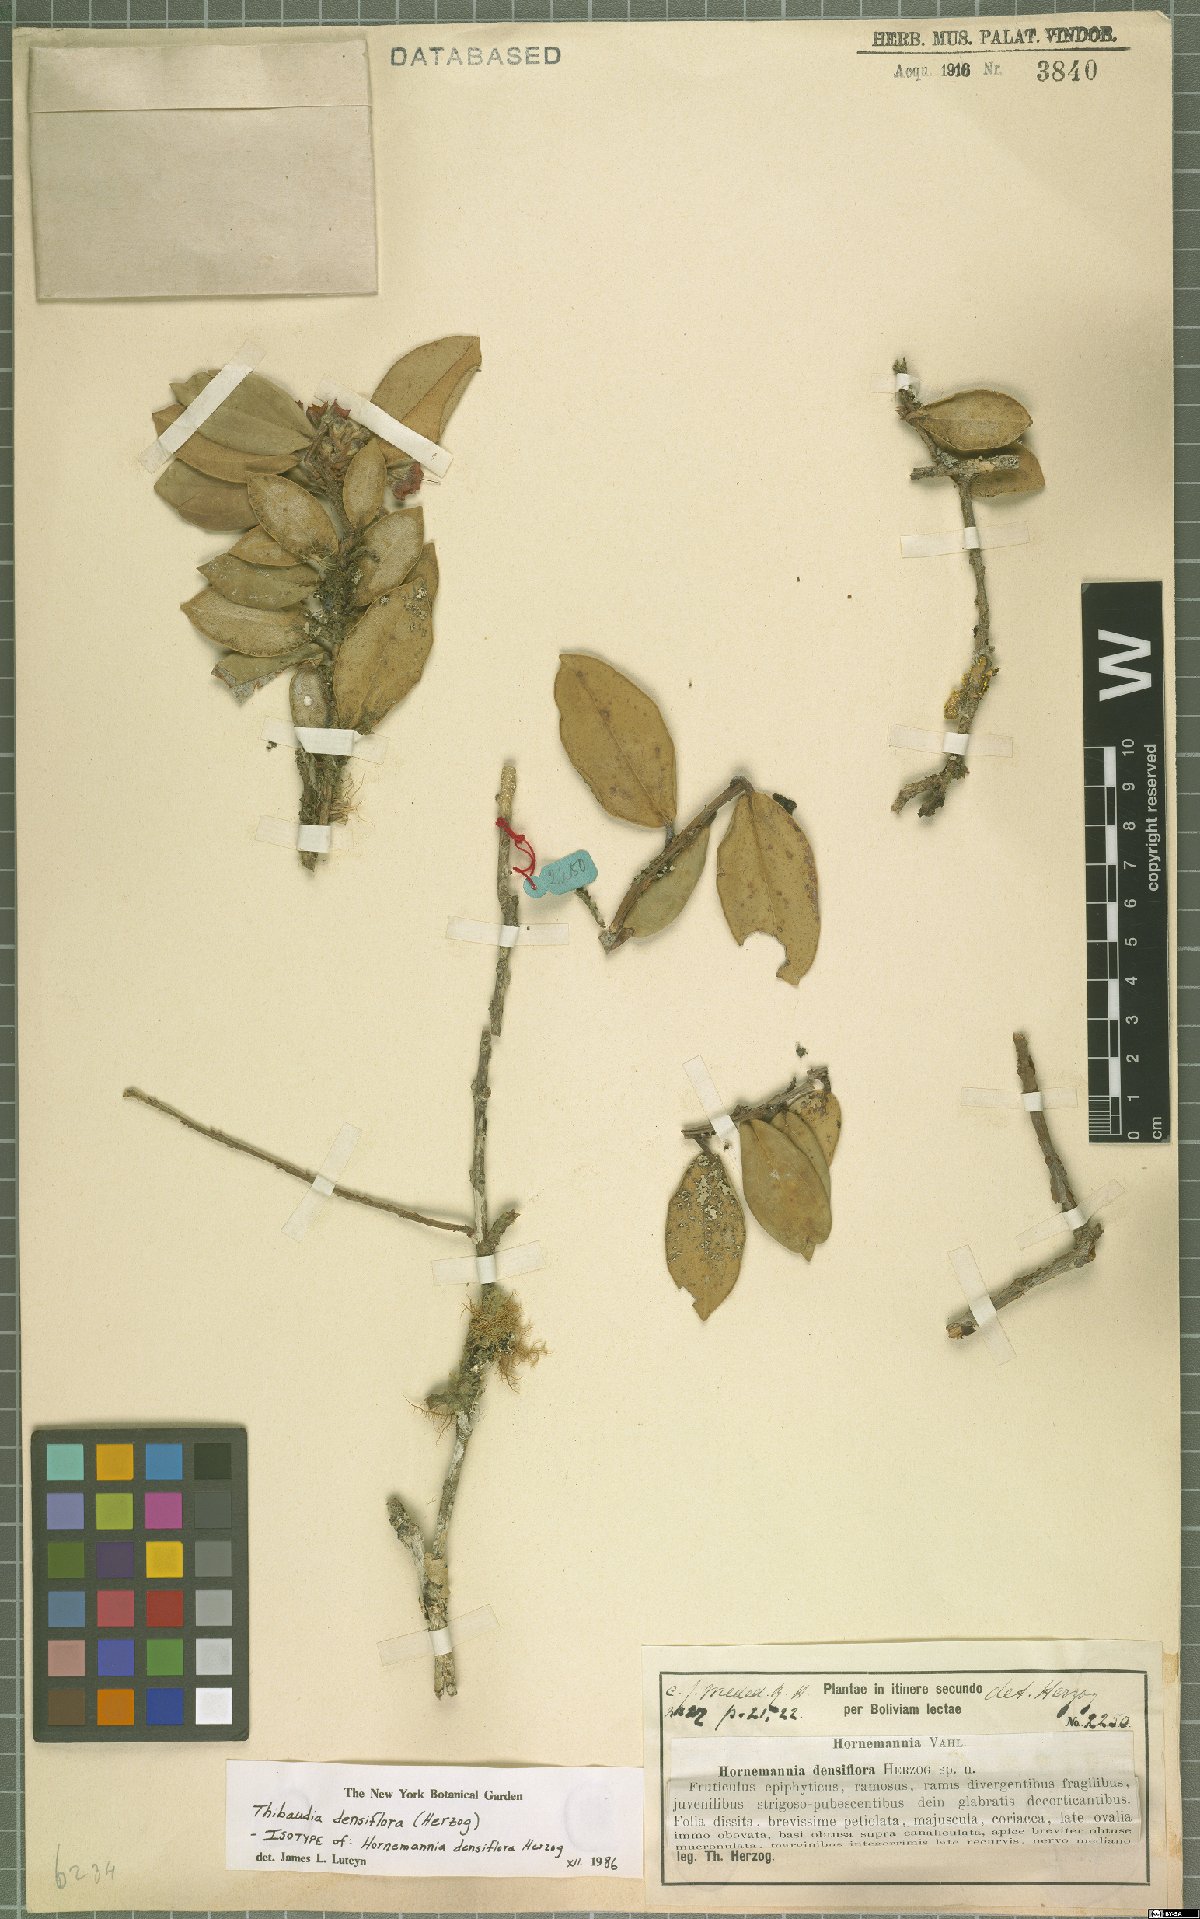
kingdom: Plantae
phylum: Tracheophyta
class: Magnoliopsida
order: Ericales
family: Ericaceae
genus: Thibaudia
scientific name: Thibaudia densiflora
